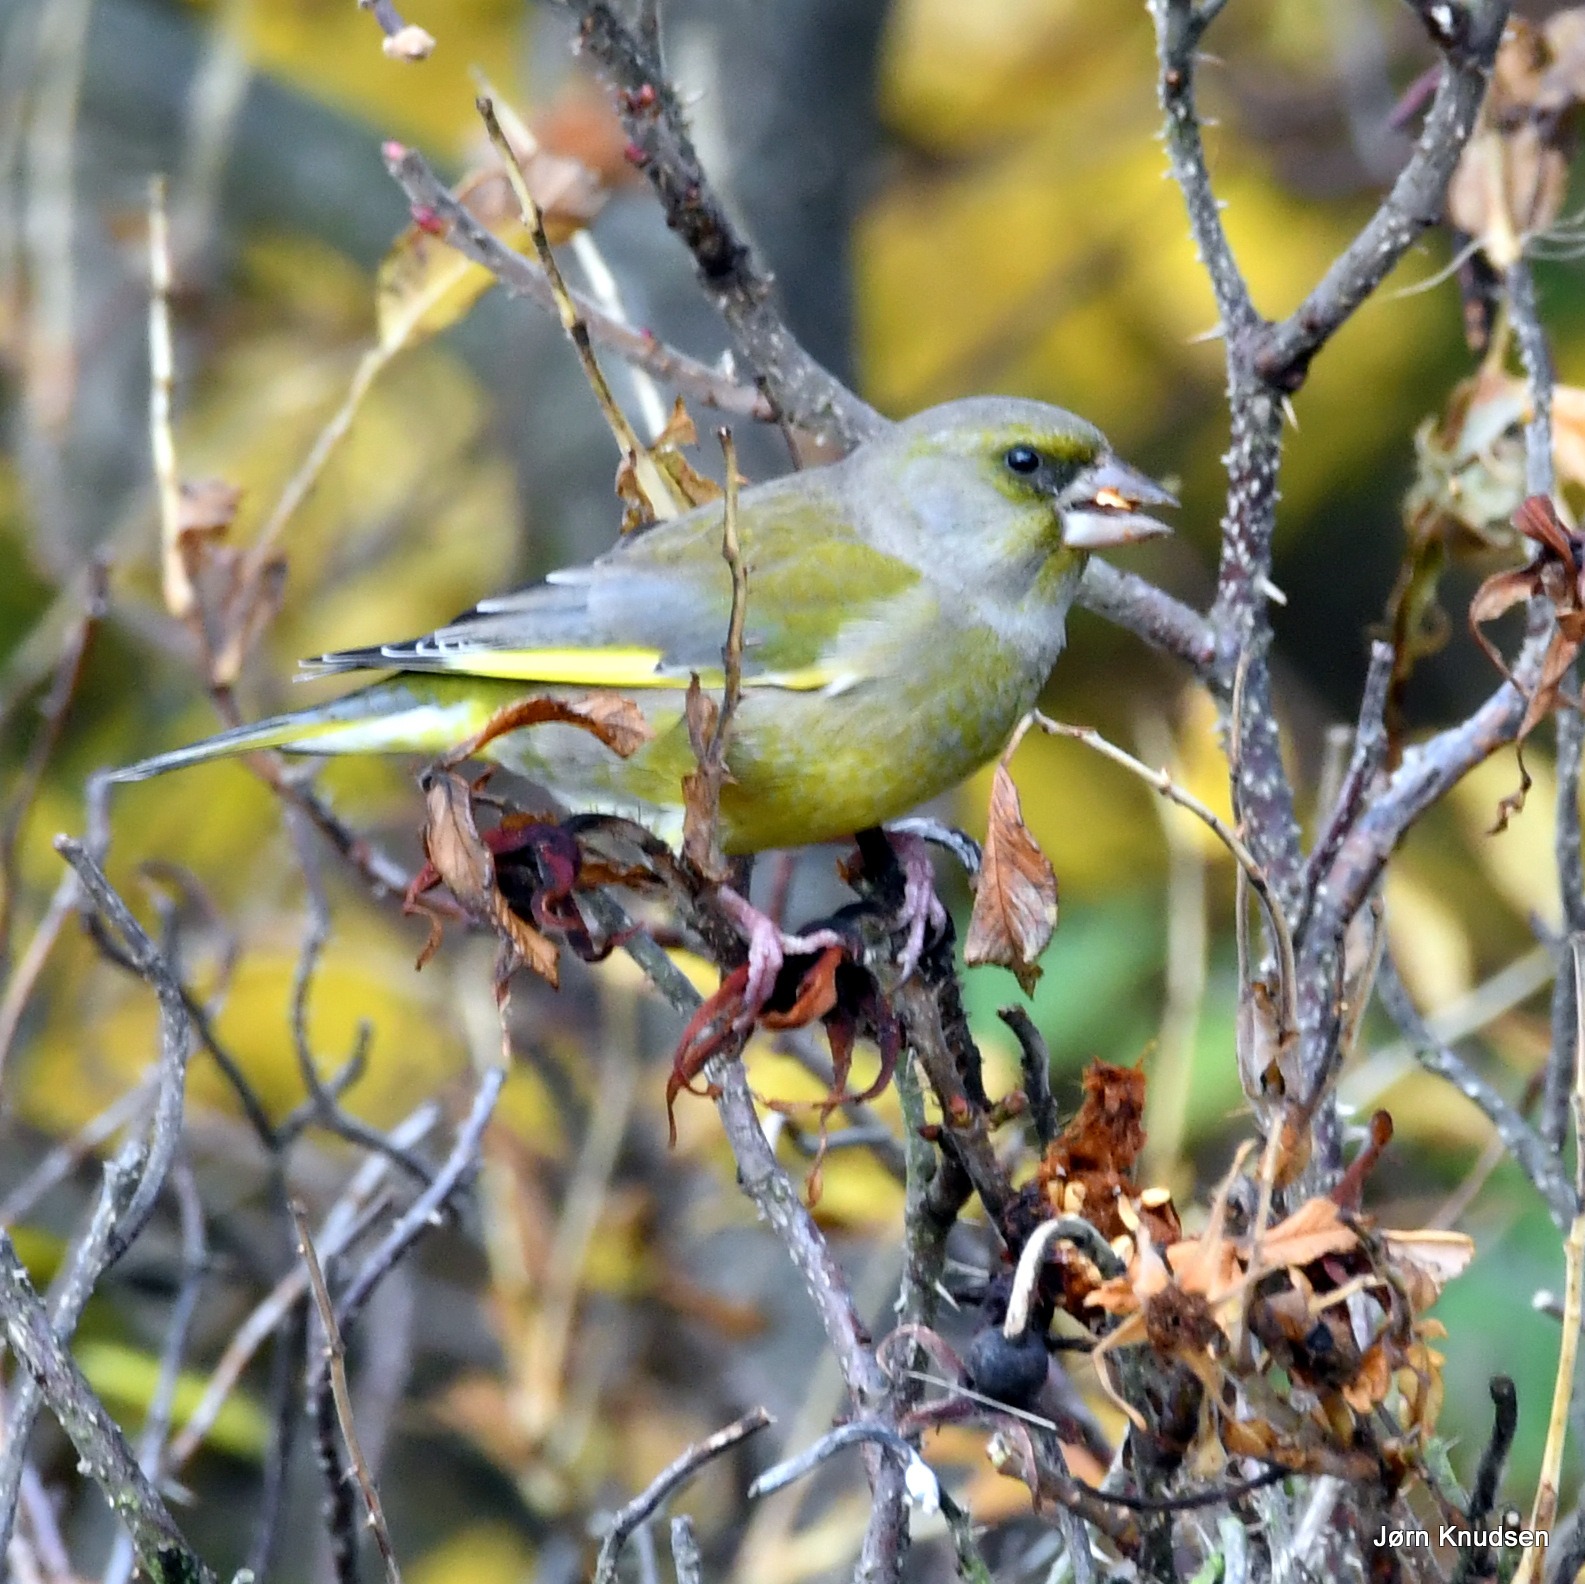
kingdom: Plantae
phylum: Tracheophyta
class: Liliopsida
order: Poales
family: Poaceae
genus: Chloris
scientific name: Chloris chloris
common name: Grønirisk
